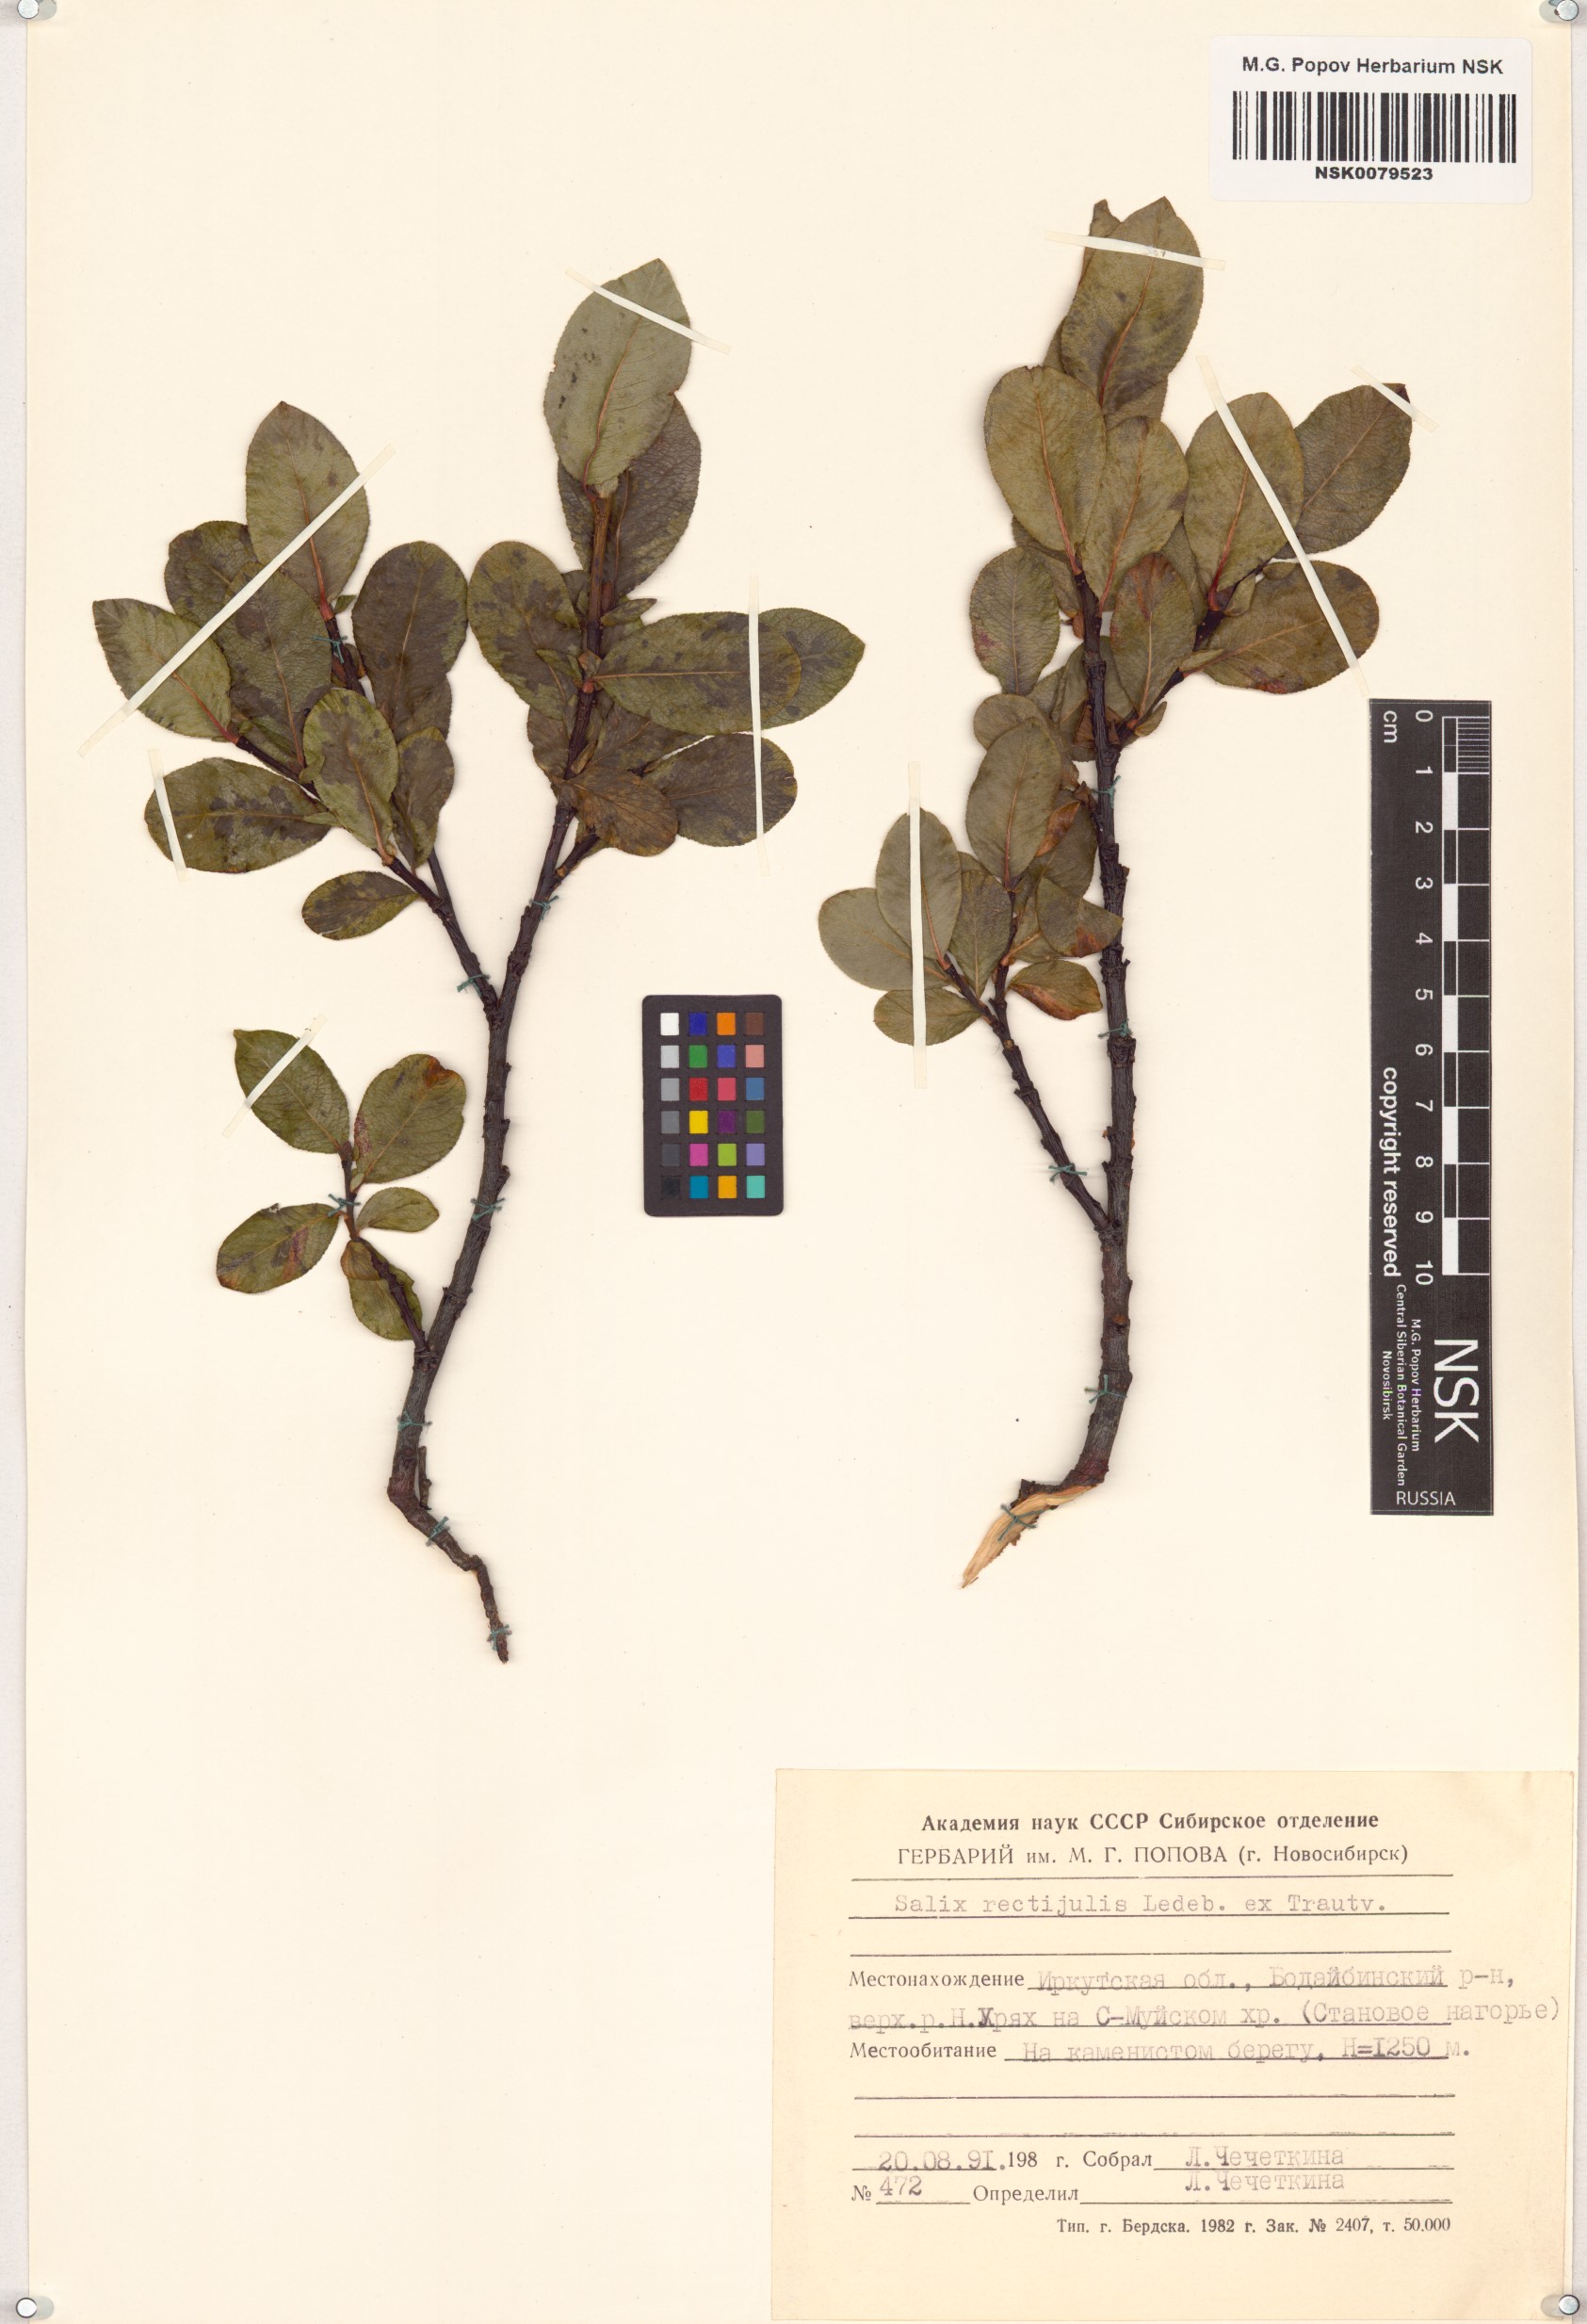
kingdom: Plantae
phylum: Tracheophyta
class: Magnoliopsida
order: Malpighiales
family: Salicaceae
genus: Salix
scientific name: Salix rectijulis
